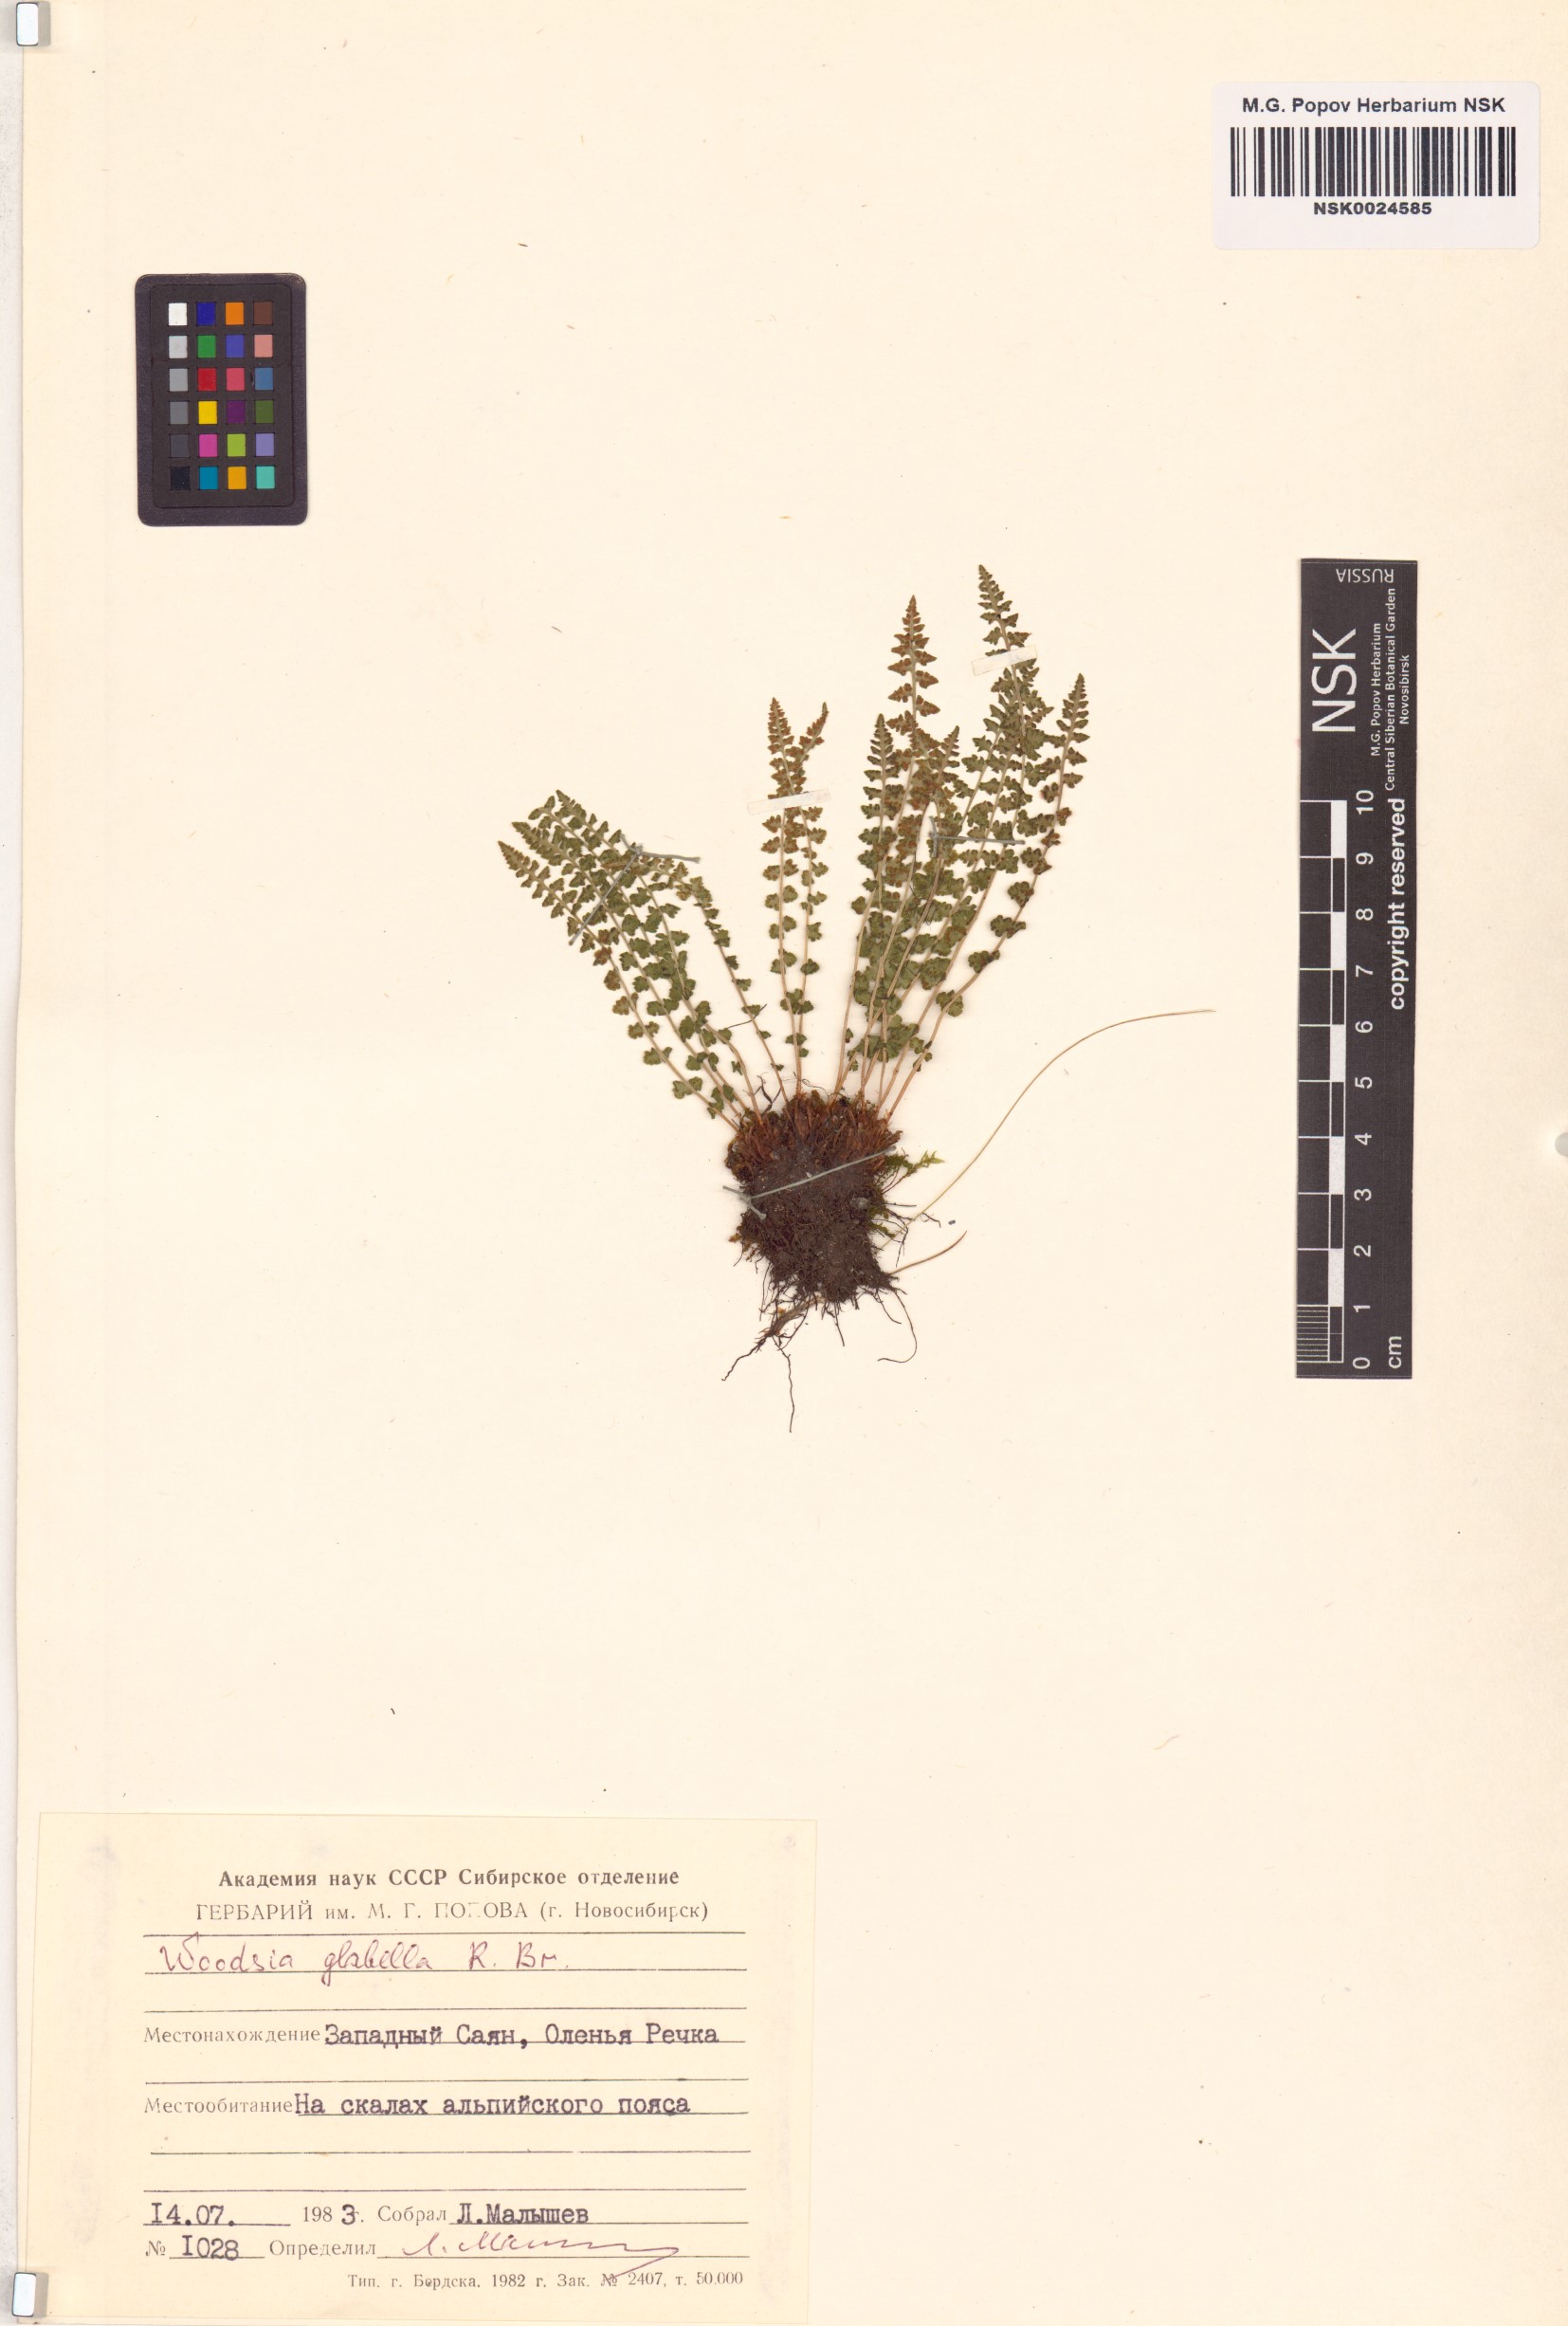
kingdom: Plantae
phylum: Tracheophyta
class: Polypodiopsida
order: Polypodiales
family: Woodsiaceae
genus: Woodsia
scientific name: Woodsia glabella
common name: Smooth woodsia
